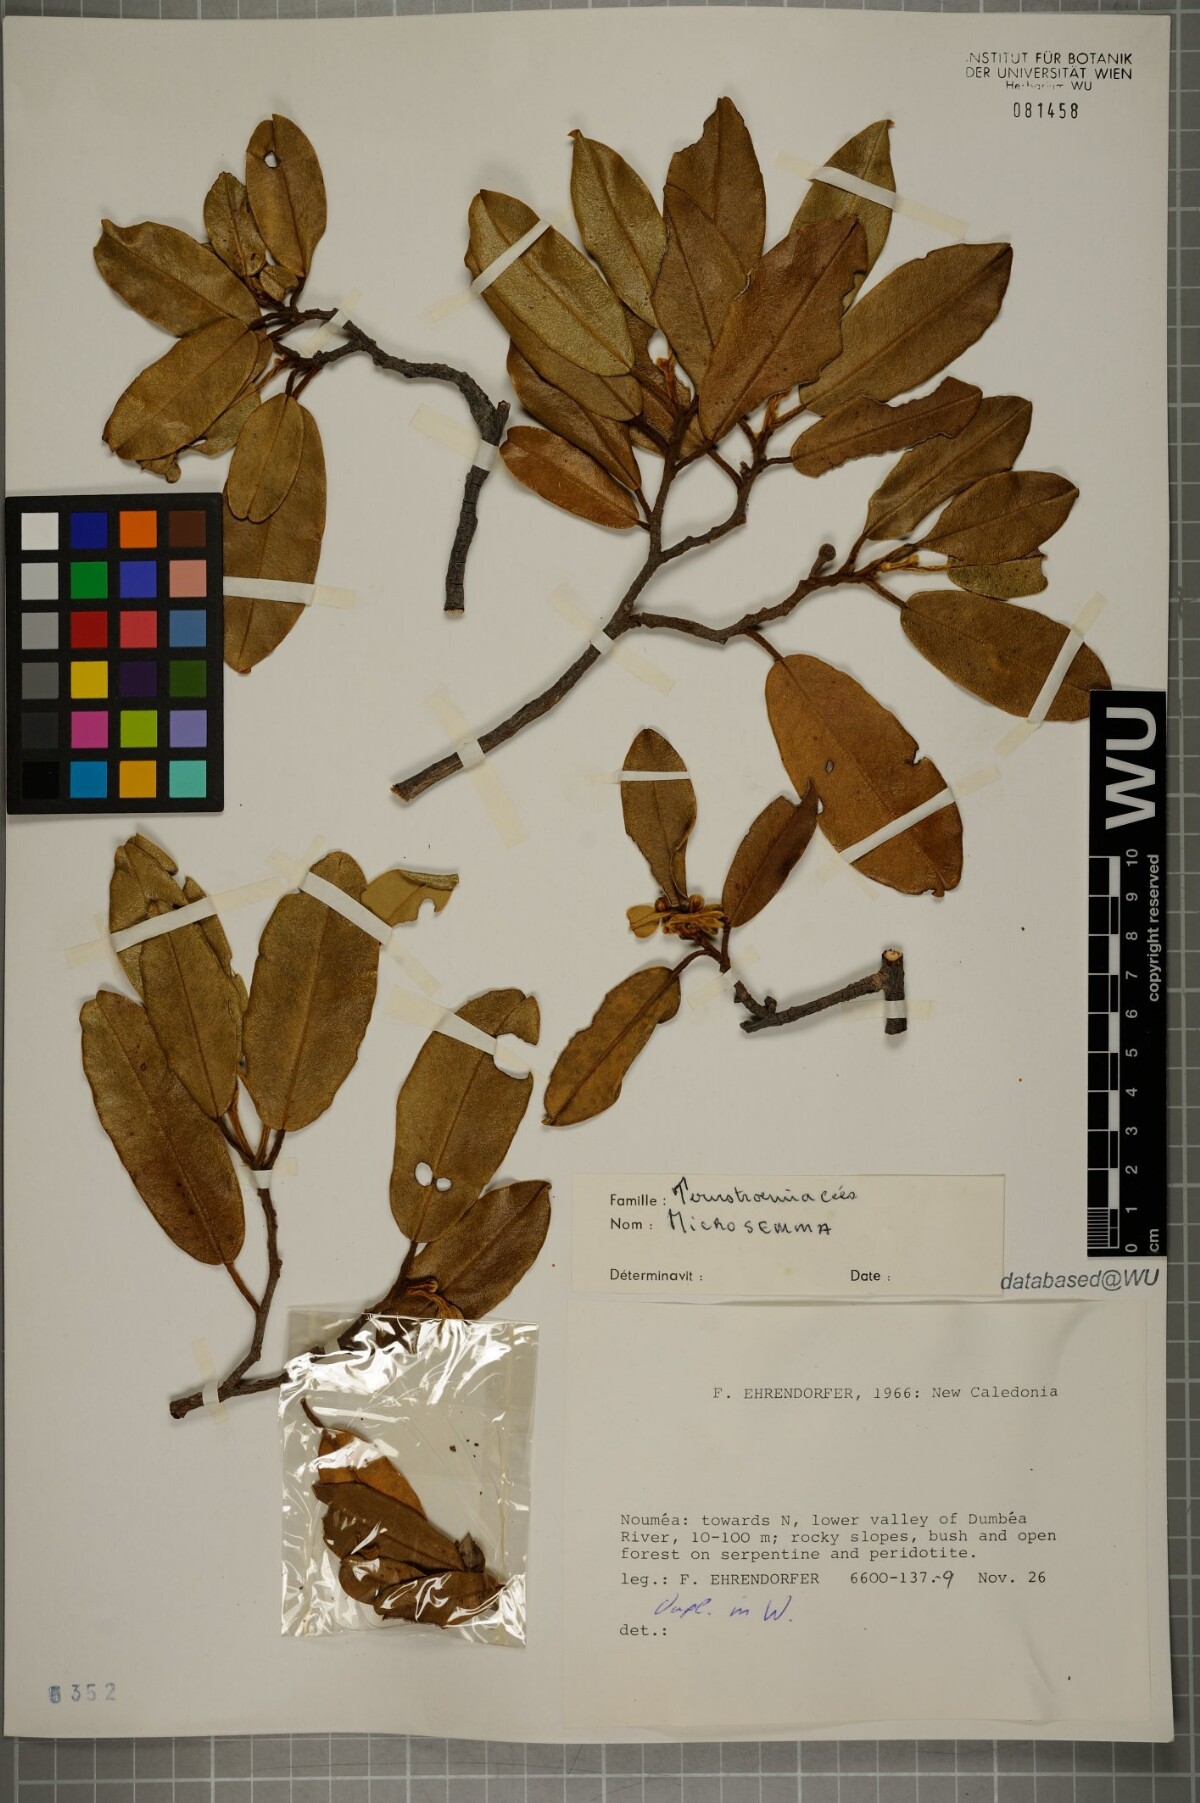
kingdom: Plantae
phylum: Tracheophyta
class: Magnoliopsida
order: Malvales
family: Thymelaeaceae
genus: Lethedon
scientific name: Lethedon
